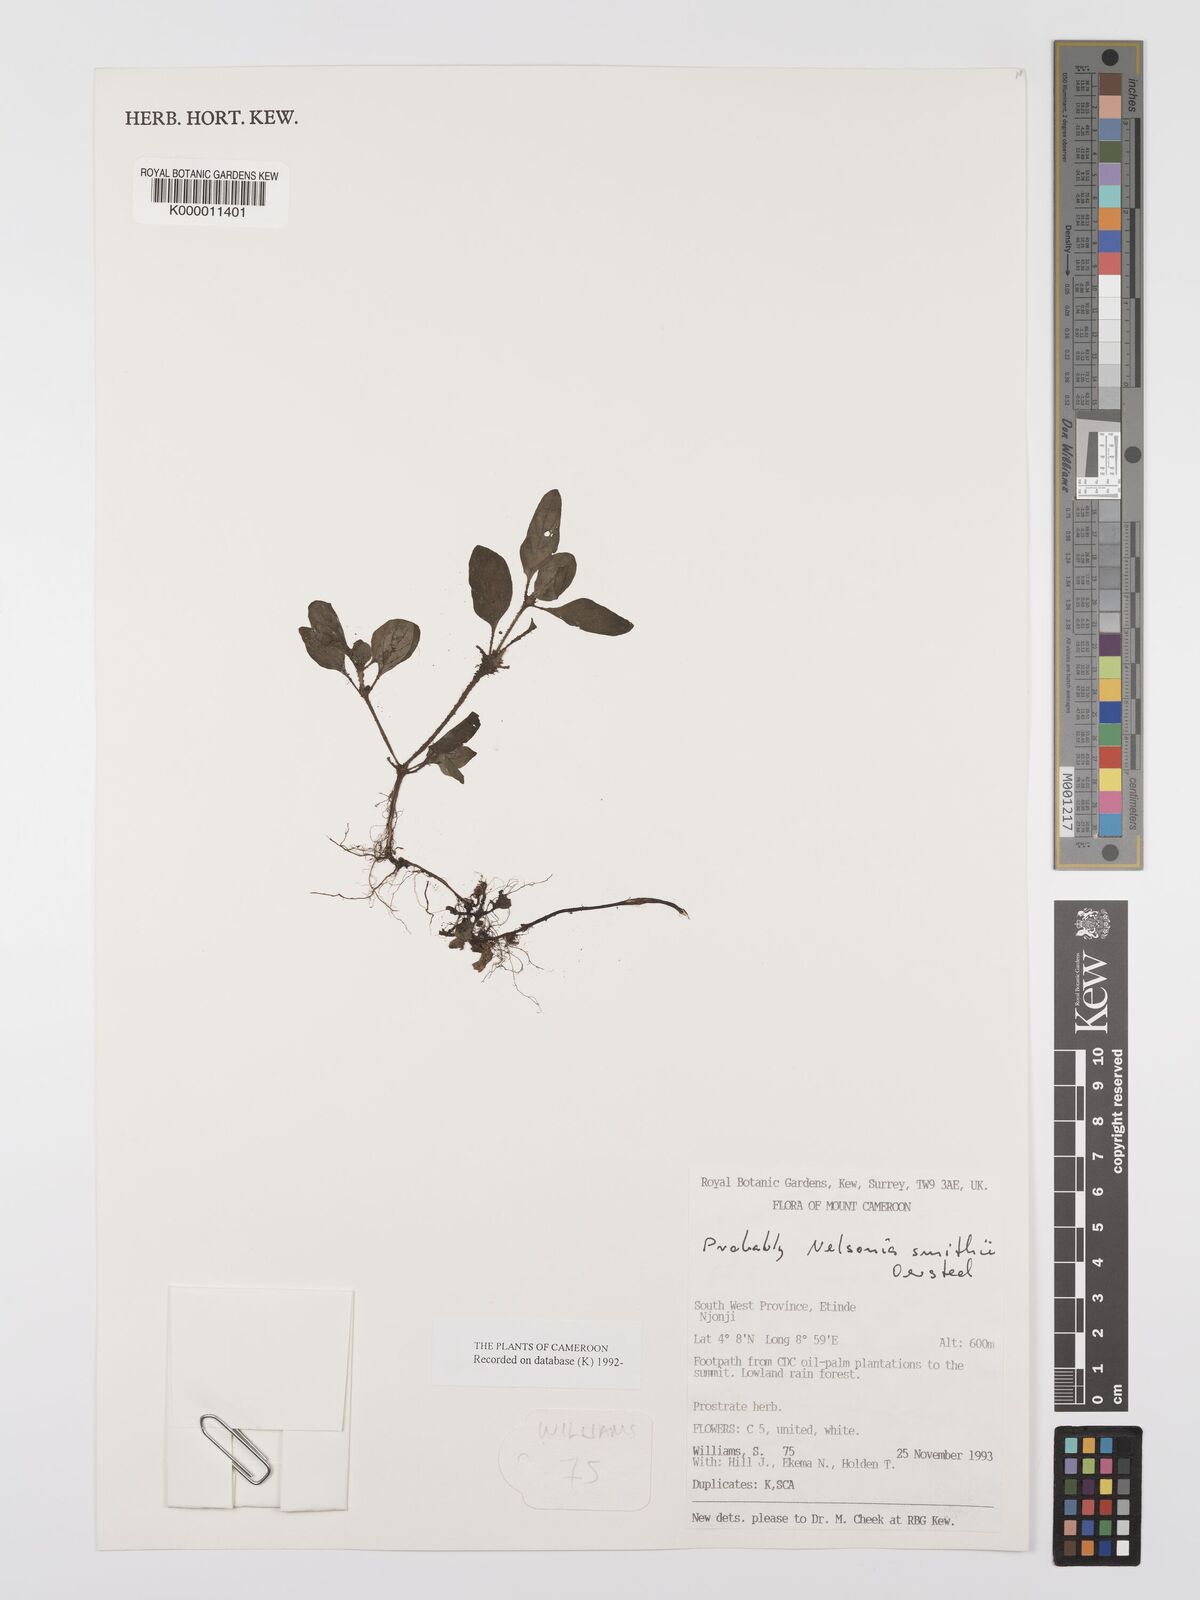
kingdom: Plantae
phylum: Tracheophyta
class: Magnoliopsida
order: Lamiales
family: Acanthaceae
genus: Nelsonia
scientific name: Nelsonia smithii
